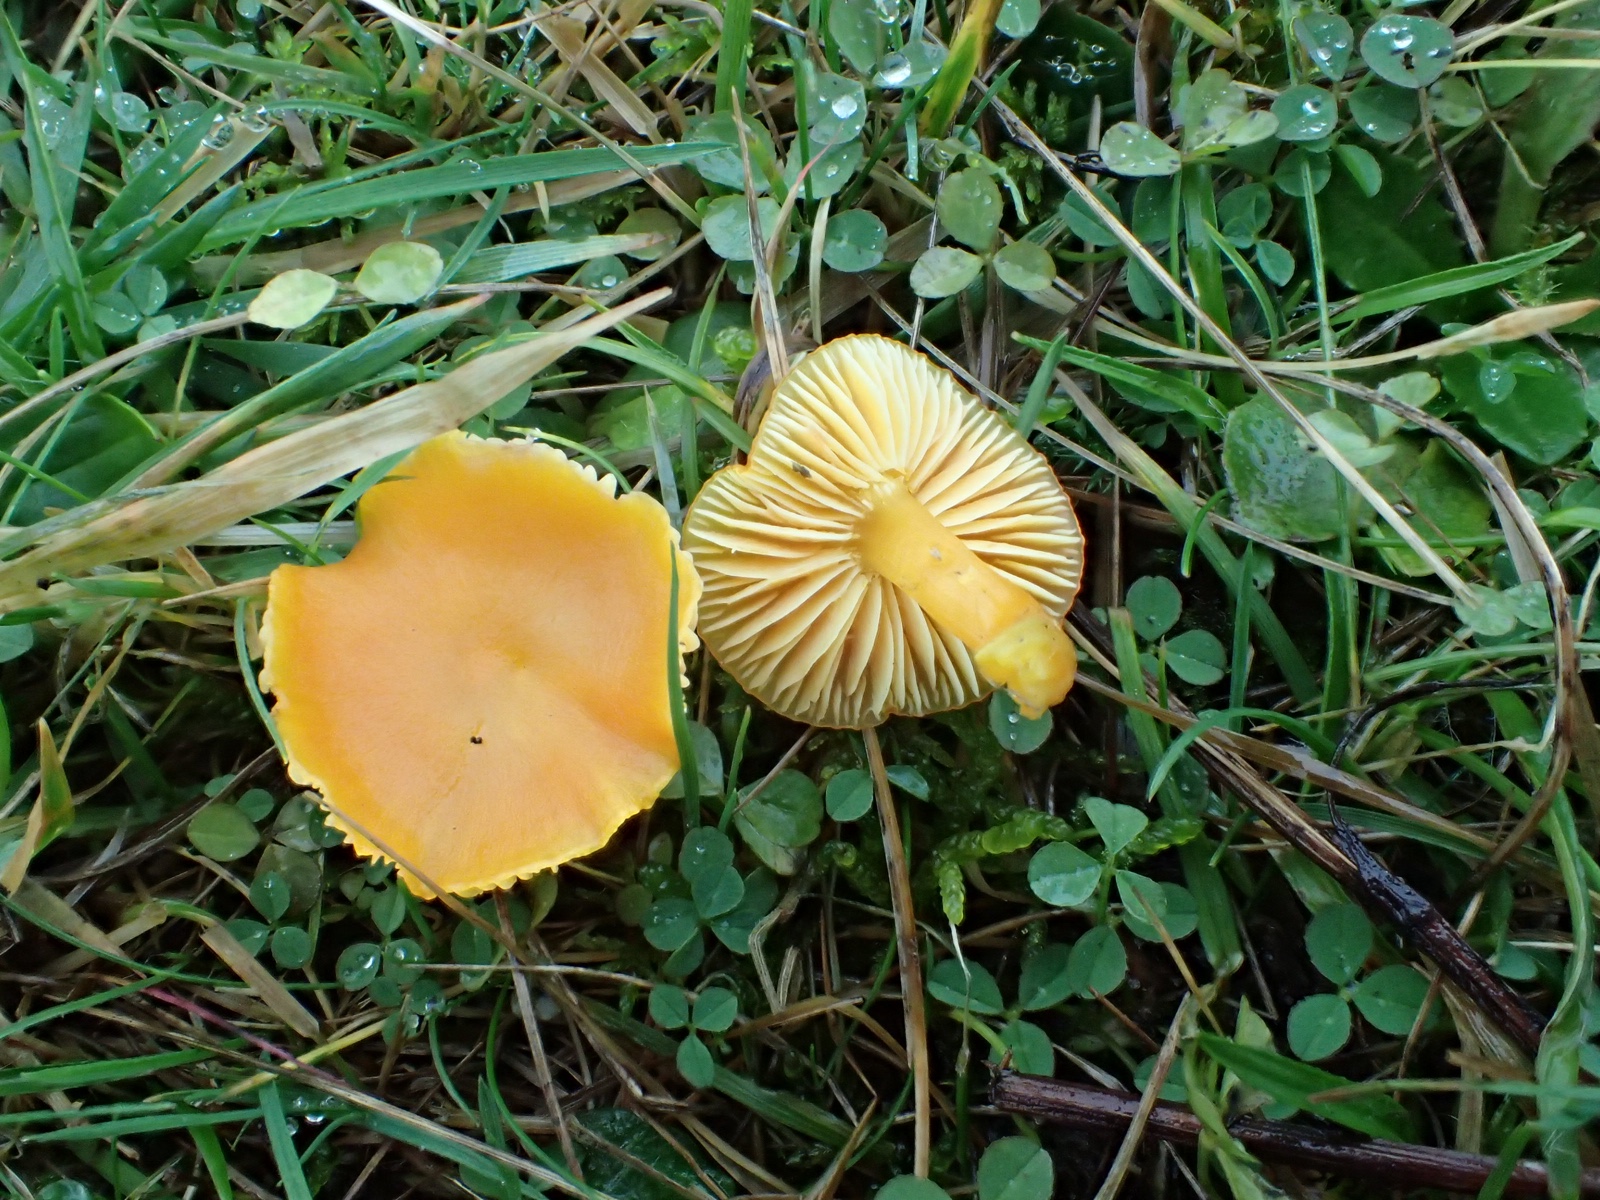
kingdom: Fungi
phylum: Basidiomycota
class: Agaricomycetes
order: Agaricales
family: Hygrophoraceae
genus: Hygrocybe
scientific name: Hygrocybe ceracea
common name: voksgul vokshat
